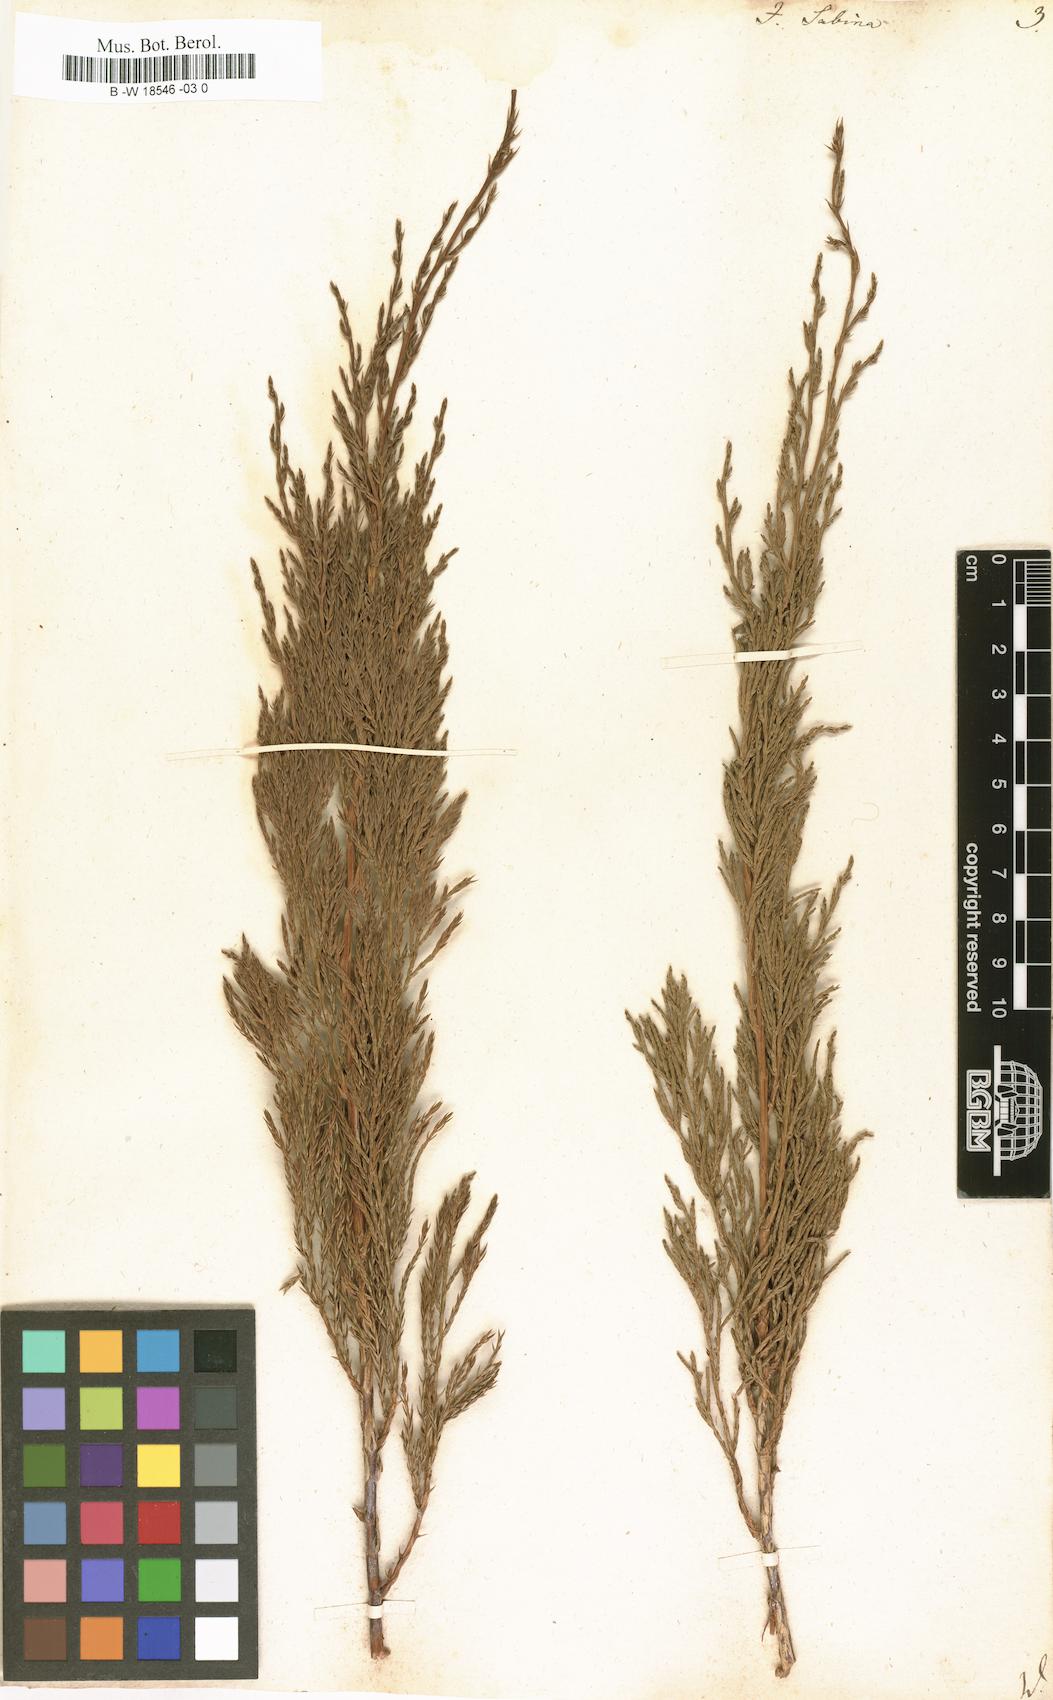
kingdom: Plantae
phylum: Tracheophyta
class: Pinopsida
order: Pinales
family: Cupressaceae
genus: Juniperus
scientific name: Juniperus sabina
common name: Savin
